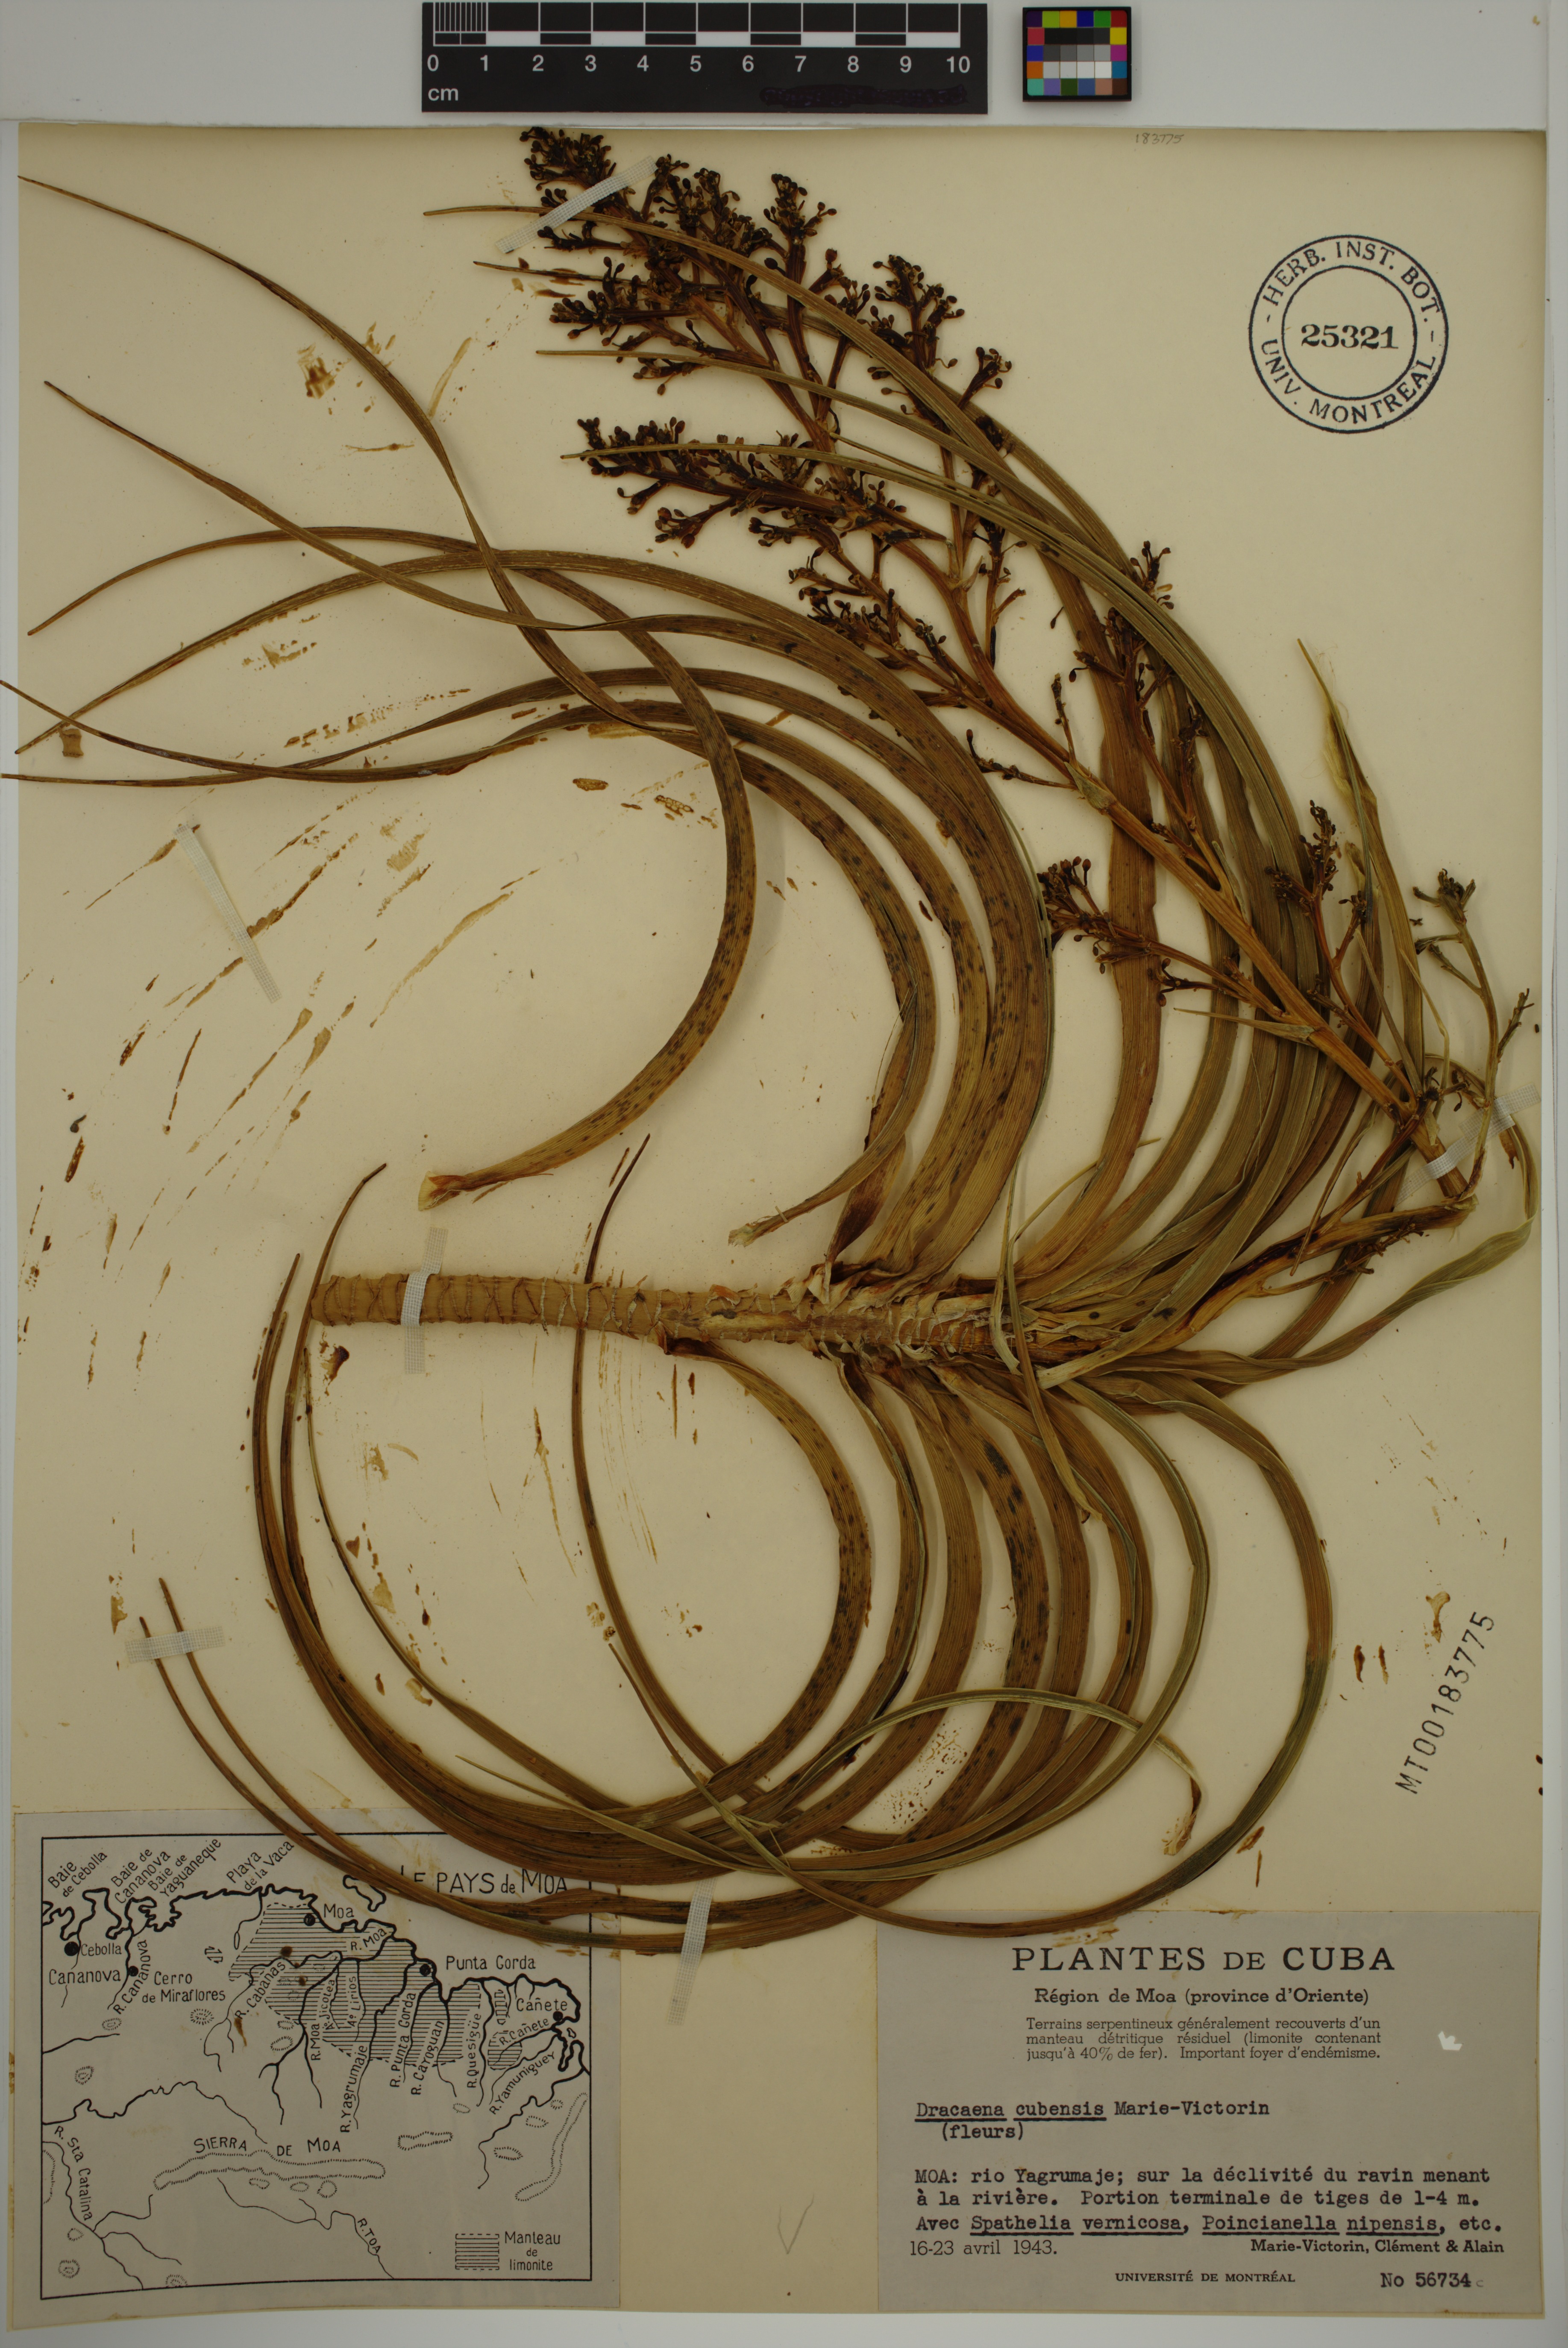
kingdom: Plantae
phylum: Tracheophyta
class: Liliopsida
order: Asparagales
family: Asparagaceae
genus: Dracaena
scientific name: Dracaena cubensis
